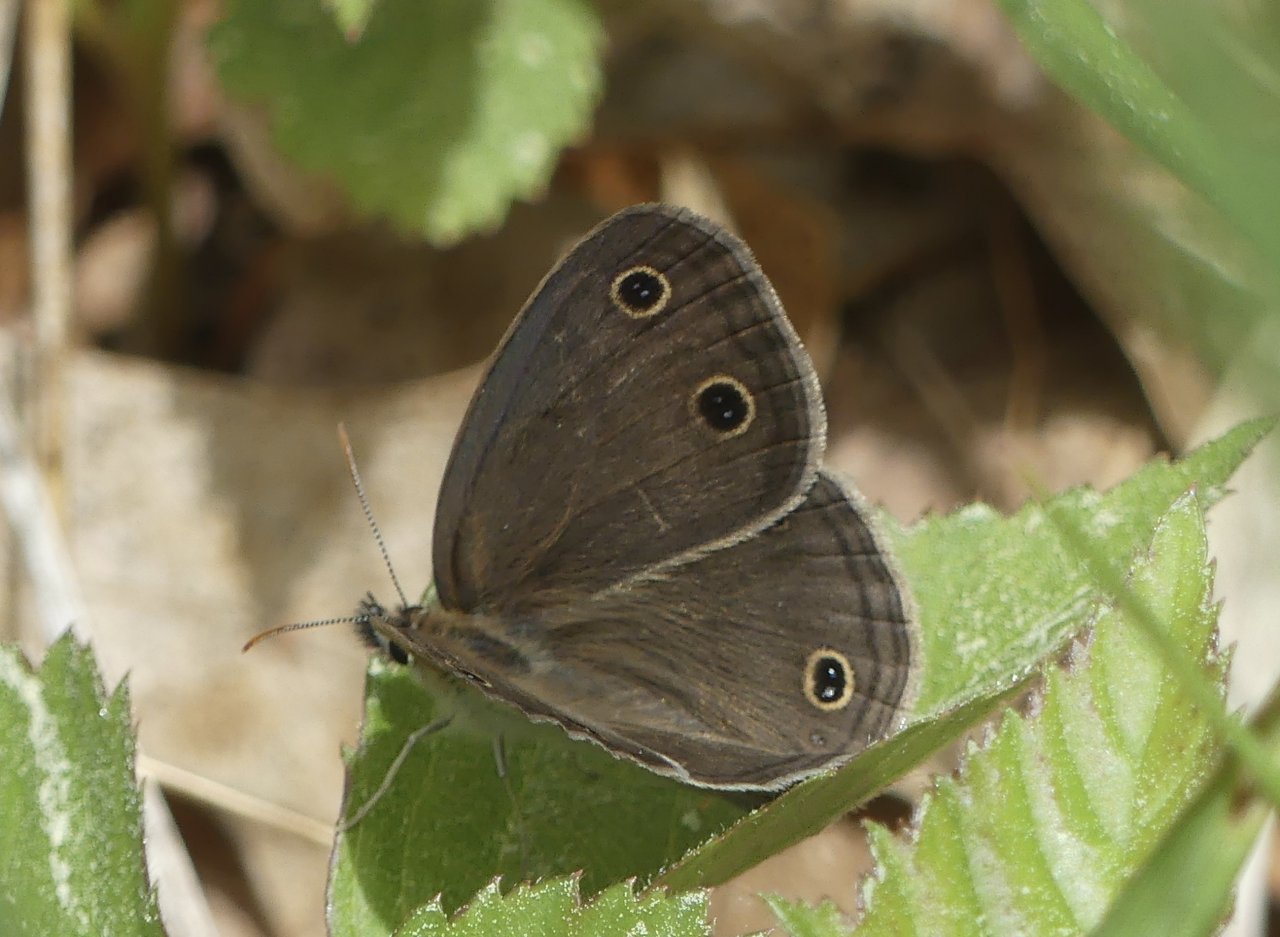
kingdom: Animalia
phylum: Arthropoda
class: Insecta
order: Lepidoptera
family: Nymphalidae
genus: Euptychia
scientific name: Euptychia cymela
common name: Little Wood Satyr
